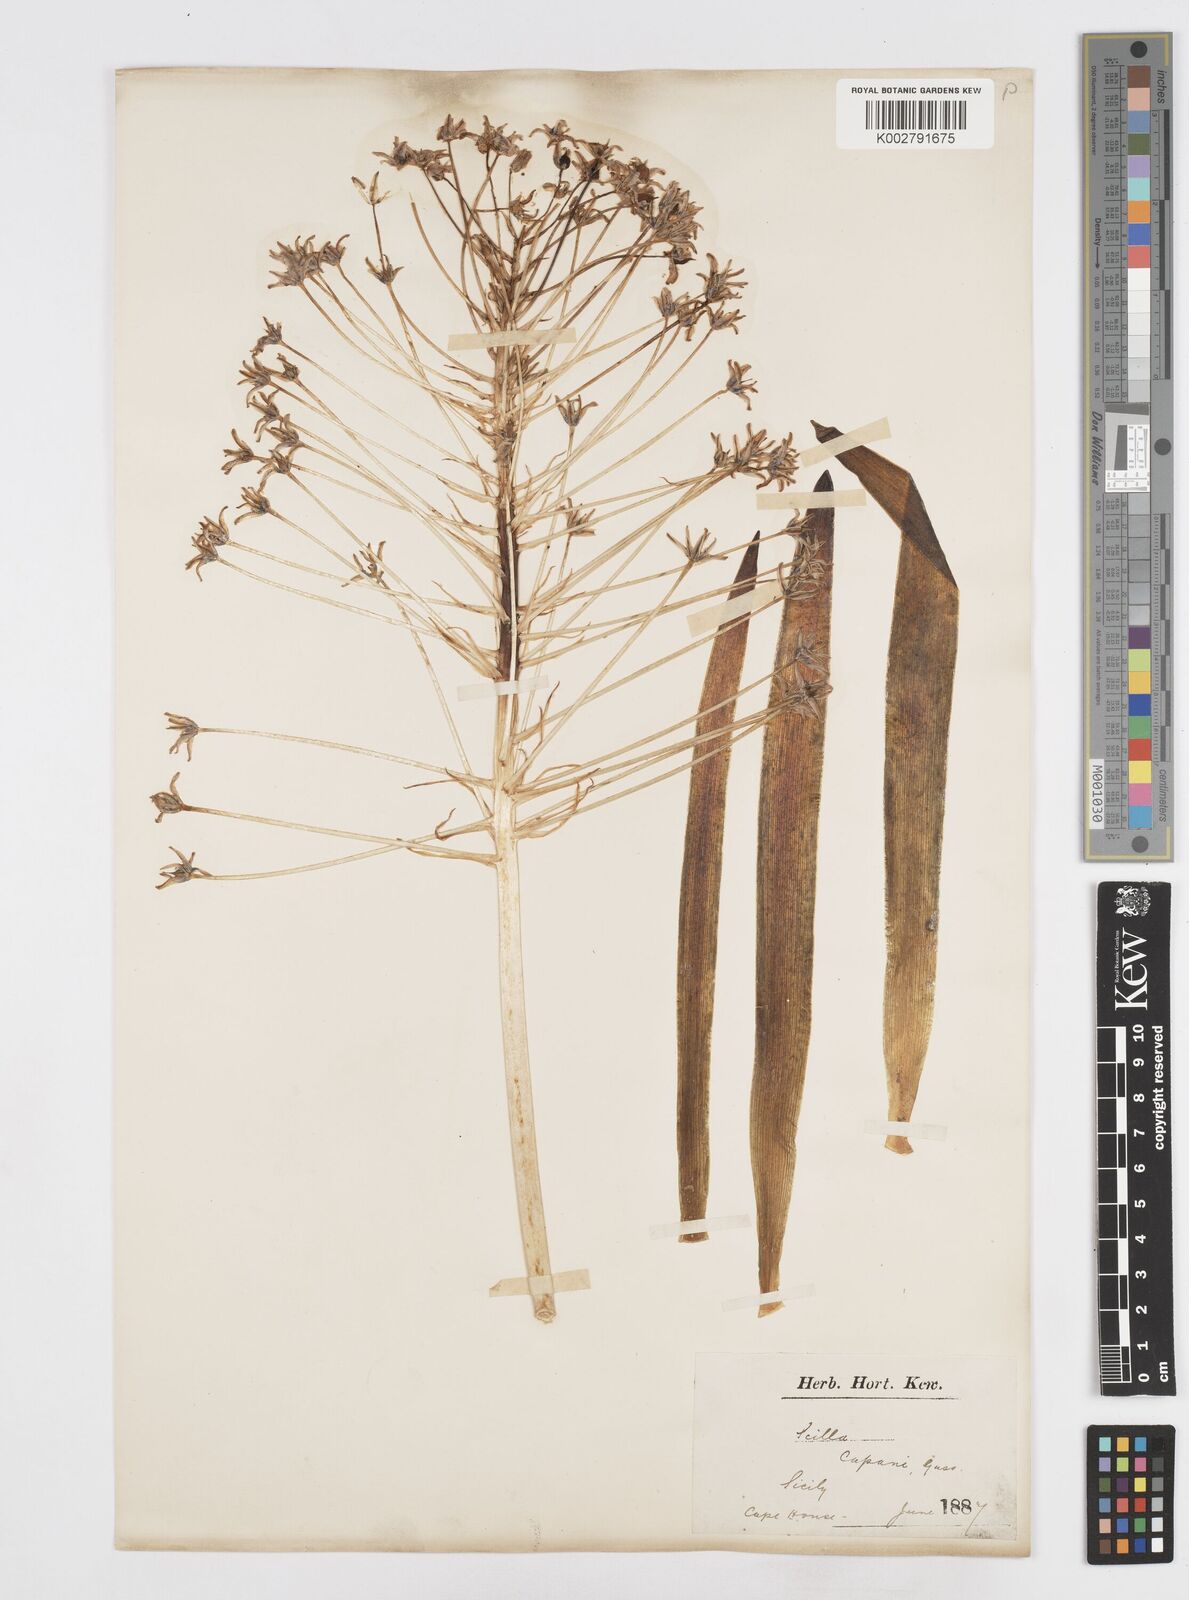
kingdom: Plantae
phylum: Tracheophyta
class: Liliopsida
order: Asparagales
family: Asparagaceae
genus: Scilla
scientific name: Scilla peruviana
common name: Portuguese squill
